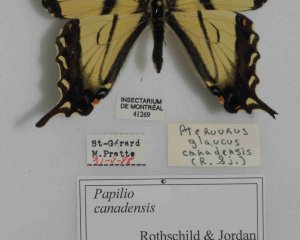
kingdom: Animalia
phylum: Arthropoda
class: Insecta
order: Lepidoptera
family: Papilionidae
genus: Pterourus
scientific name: Pterourus canadensis
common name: Canadian Tiger Swallowtail
